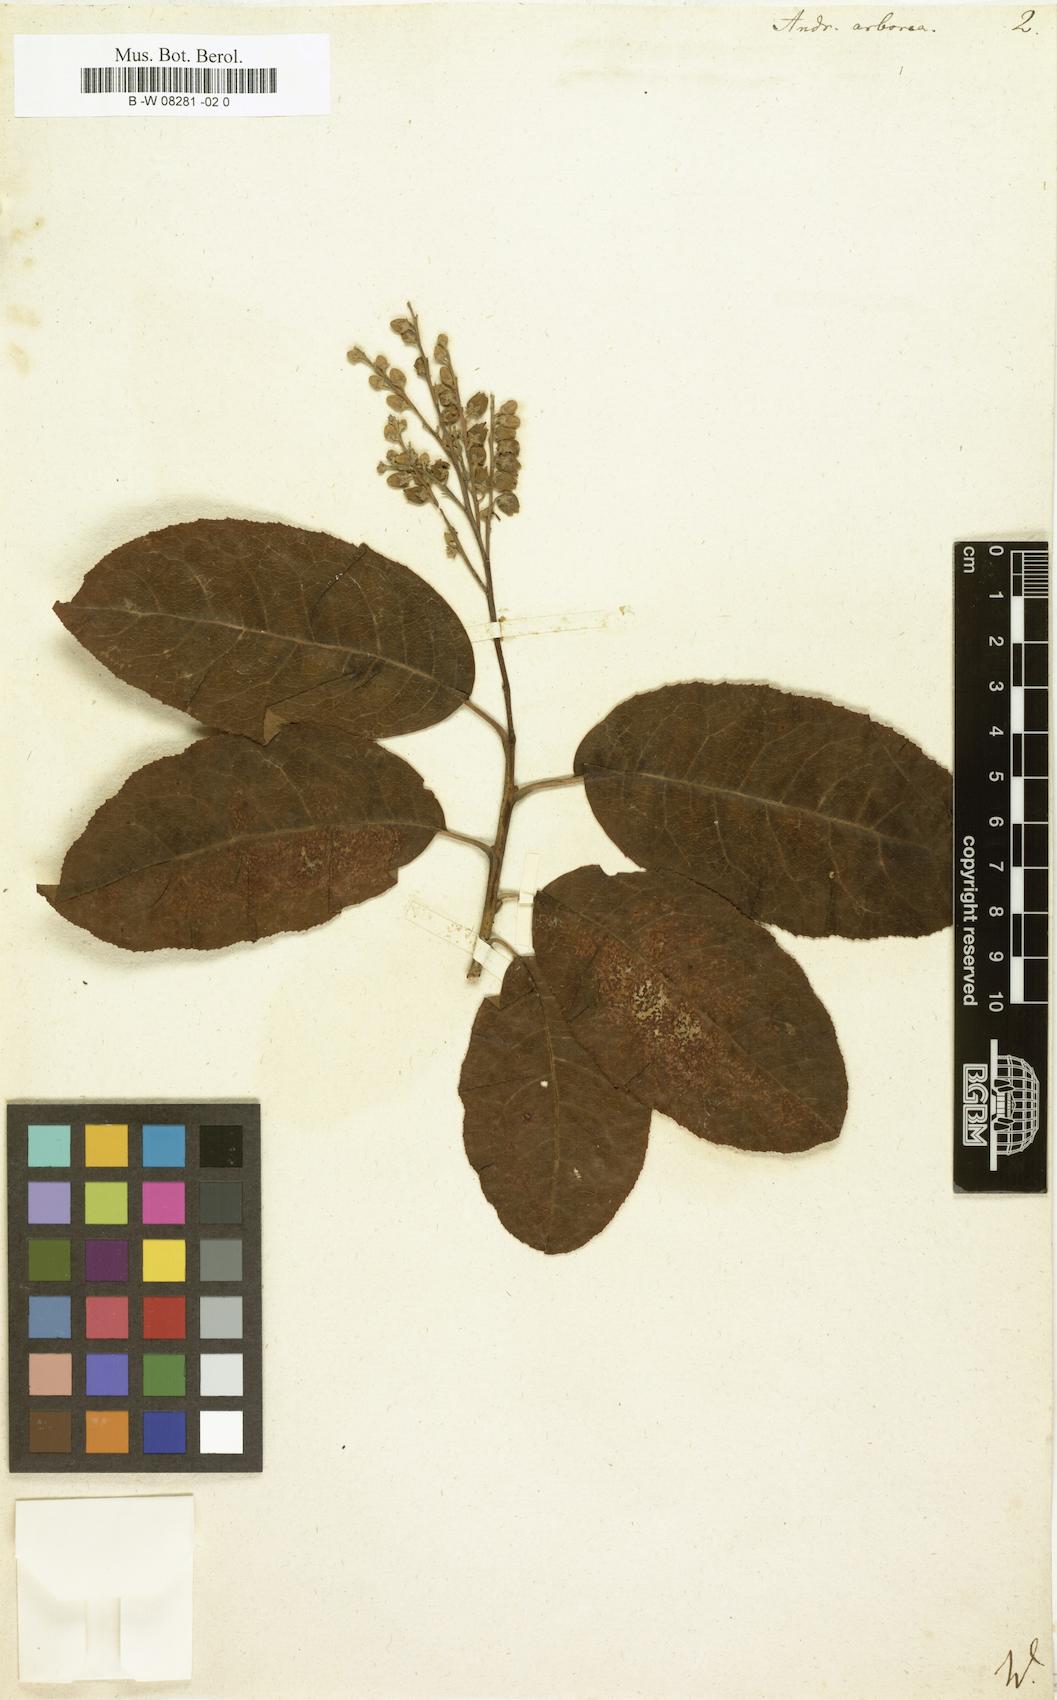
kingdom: Plantae
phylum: Tracheophyta
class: Magnoliopsida
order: Ericales
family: Ericaceae
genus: Oxydendrum
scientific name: Oxydendrum arboreum
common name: Sourwood
